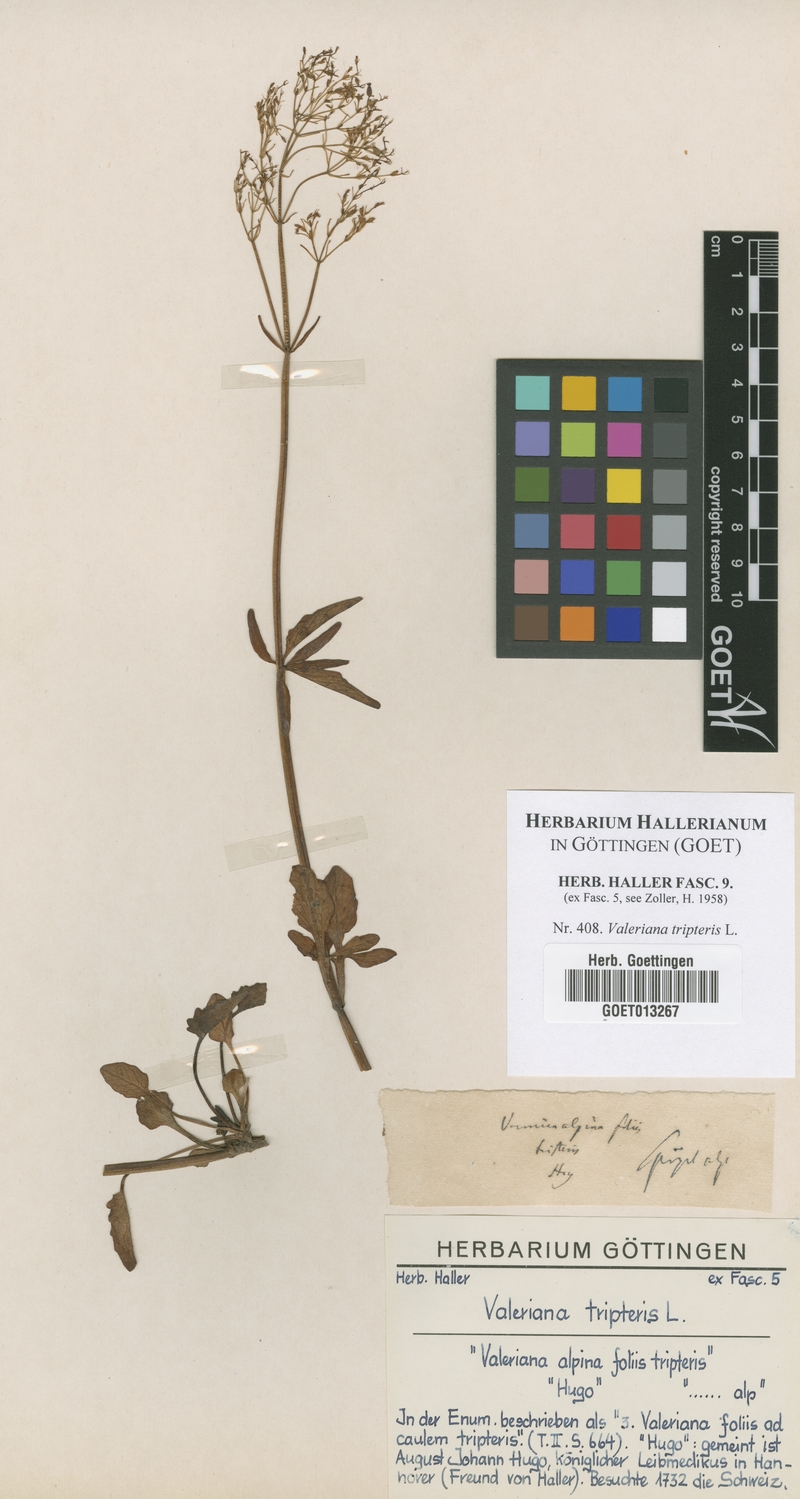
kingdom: Plantae
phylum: Tracheophyta
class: Magnoliopsida
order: Dipsacales
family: Caprifoliaceae
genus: Valeriana
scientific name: Valeriana tripteris
